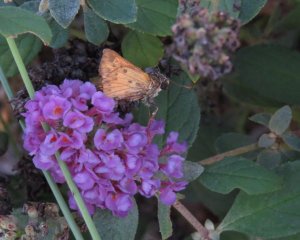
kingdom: Animalia
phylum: Arthropoda
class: Insecta
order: Lepidoptera
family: Hesperiidae
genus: Hylephila
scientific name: Hylephila phyleus
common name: Fiery Skipper
